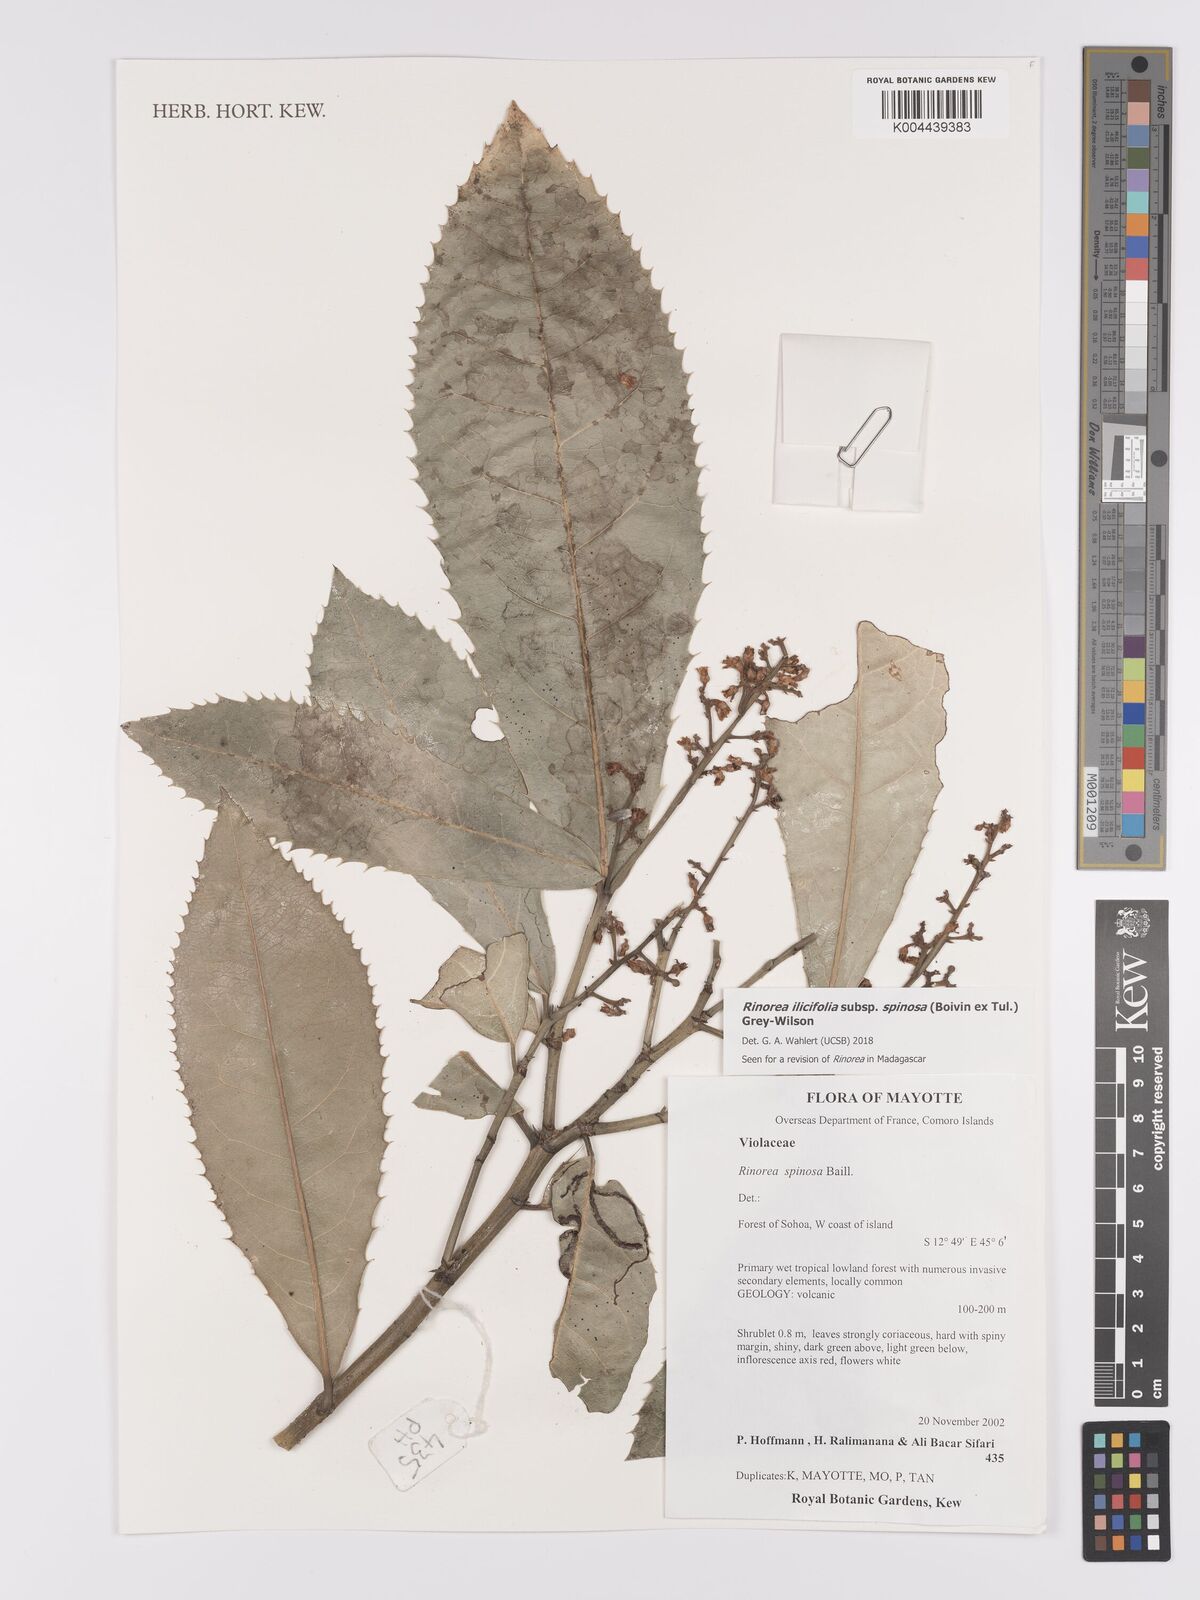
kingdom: Plantae
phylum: Tracheophyta
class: Magnoliopsida
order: Malpighiales
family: Violaceae
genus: Rinorea
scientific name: Rinorea spinosa
